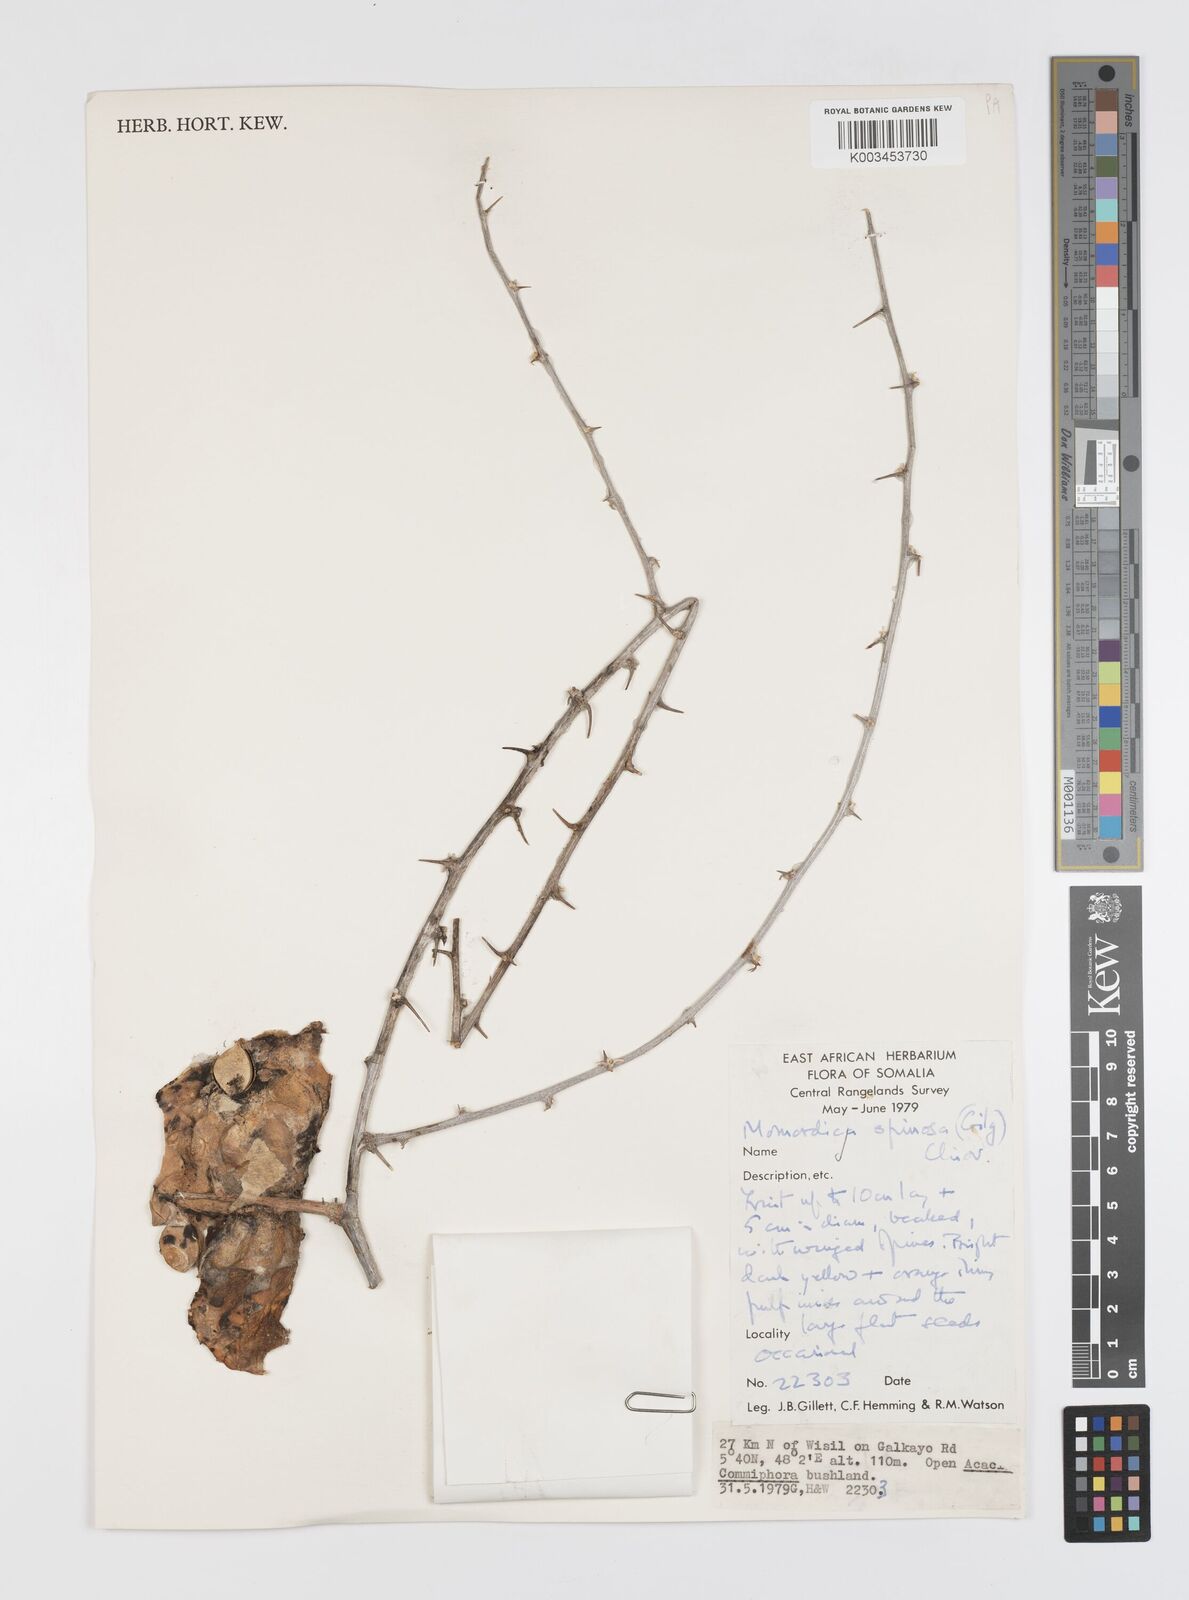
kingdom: Plantae
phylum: Tracheophyta
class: Magnoliopsida
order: Cucurbitales
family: Cucurbitaceae
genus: Momordica
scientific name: Momordica spinosa
